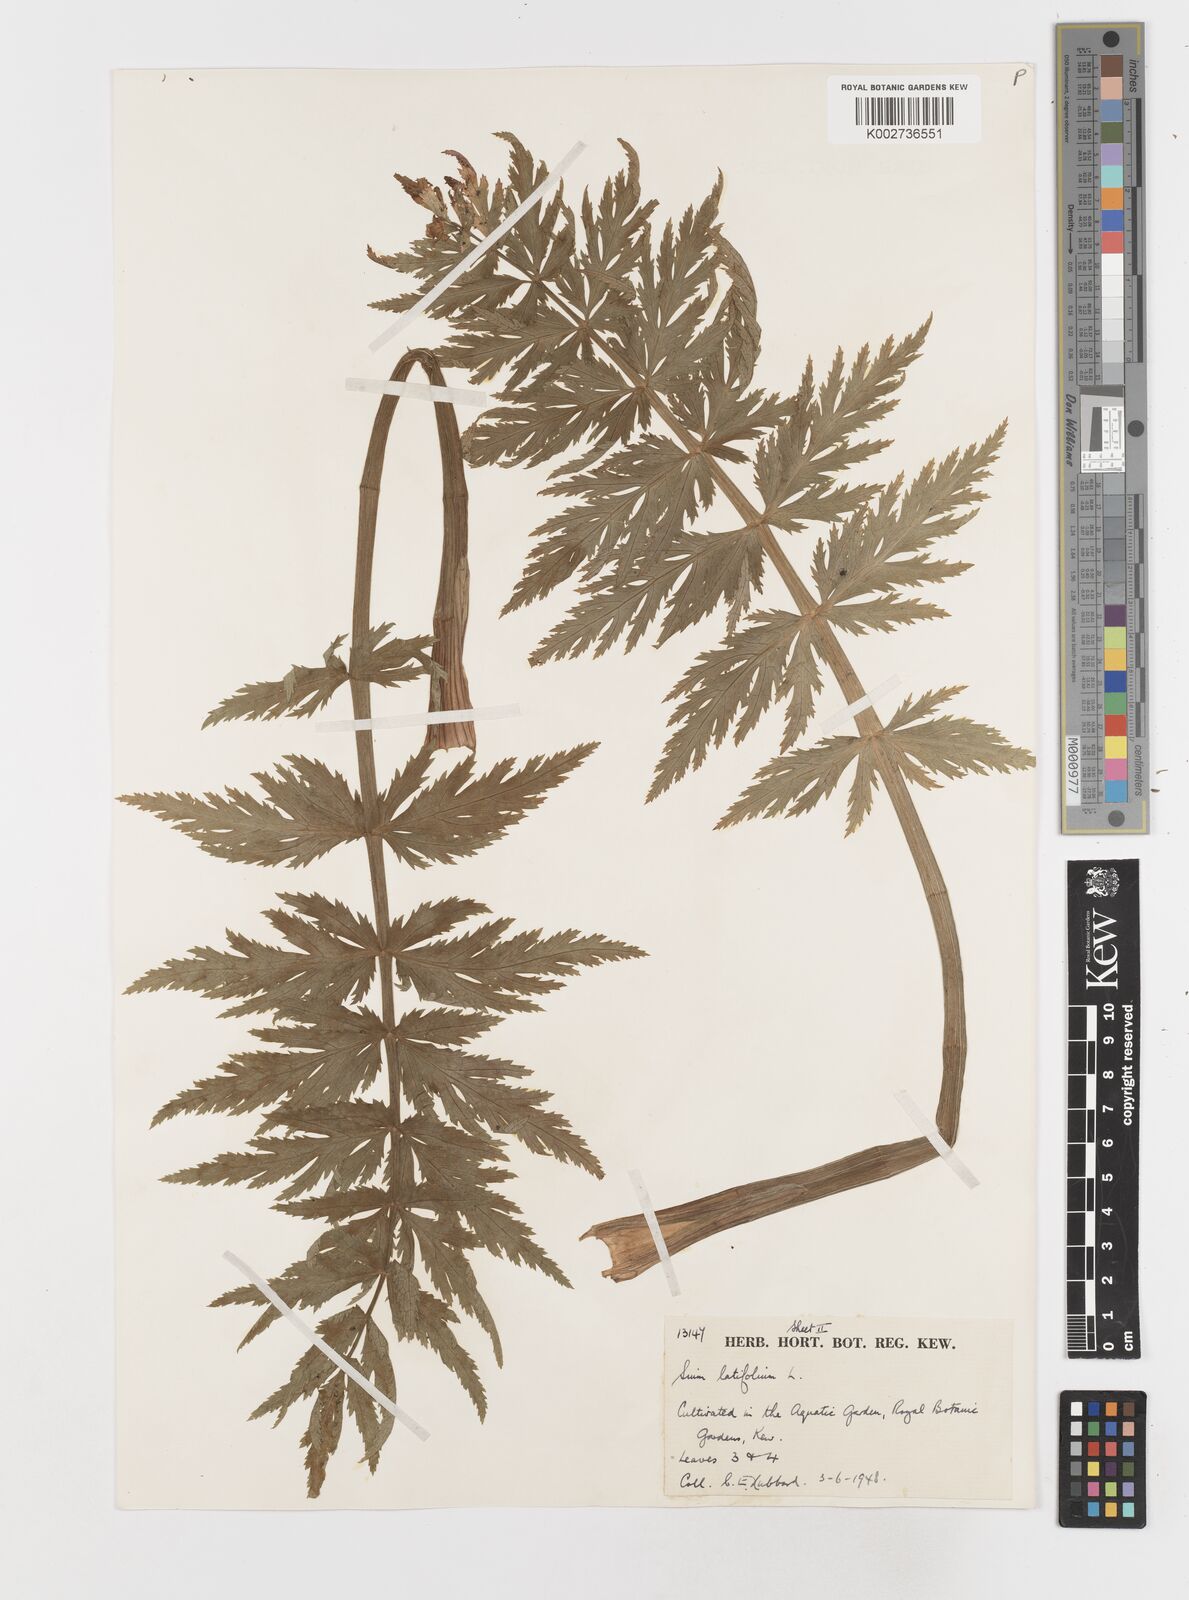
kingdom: Plantae
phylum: Tracheophyta
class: Magnoliopsida
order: Apiales
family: Apiaceae
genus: Sium
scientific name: Sium latifolium
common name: Greater water-parsnip
